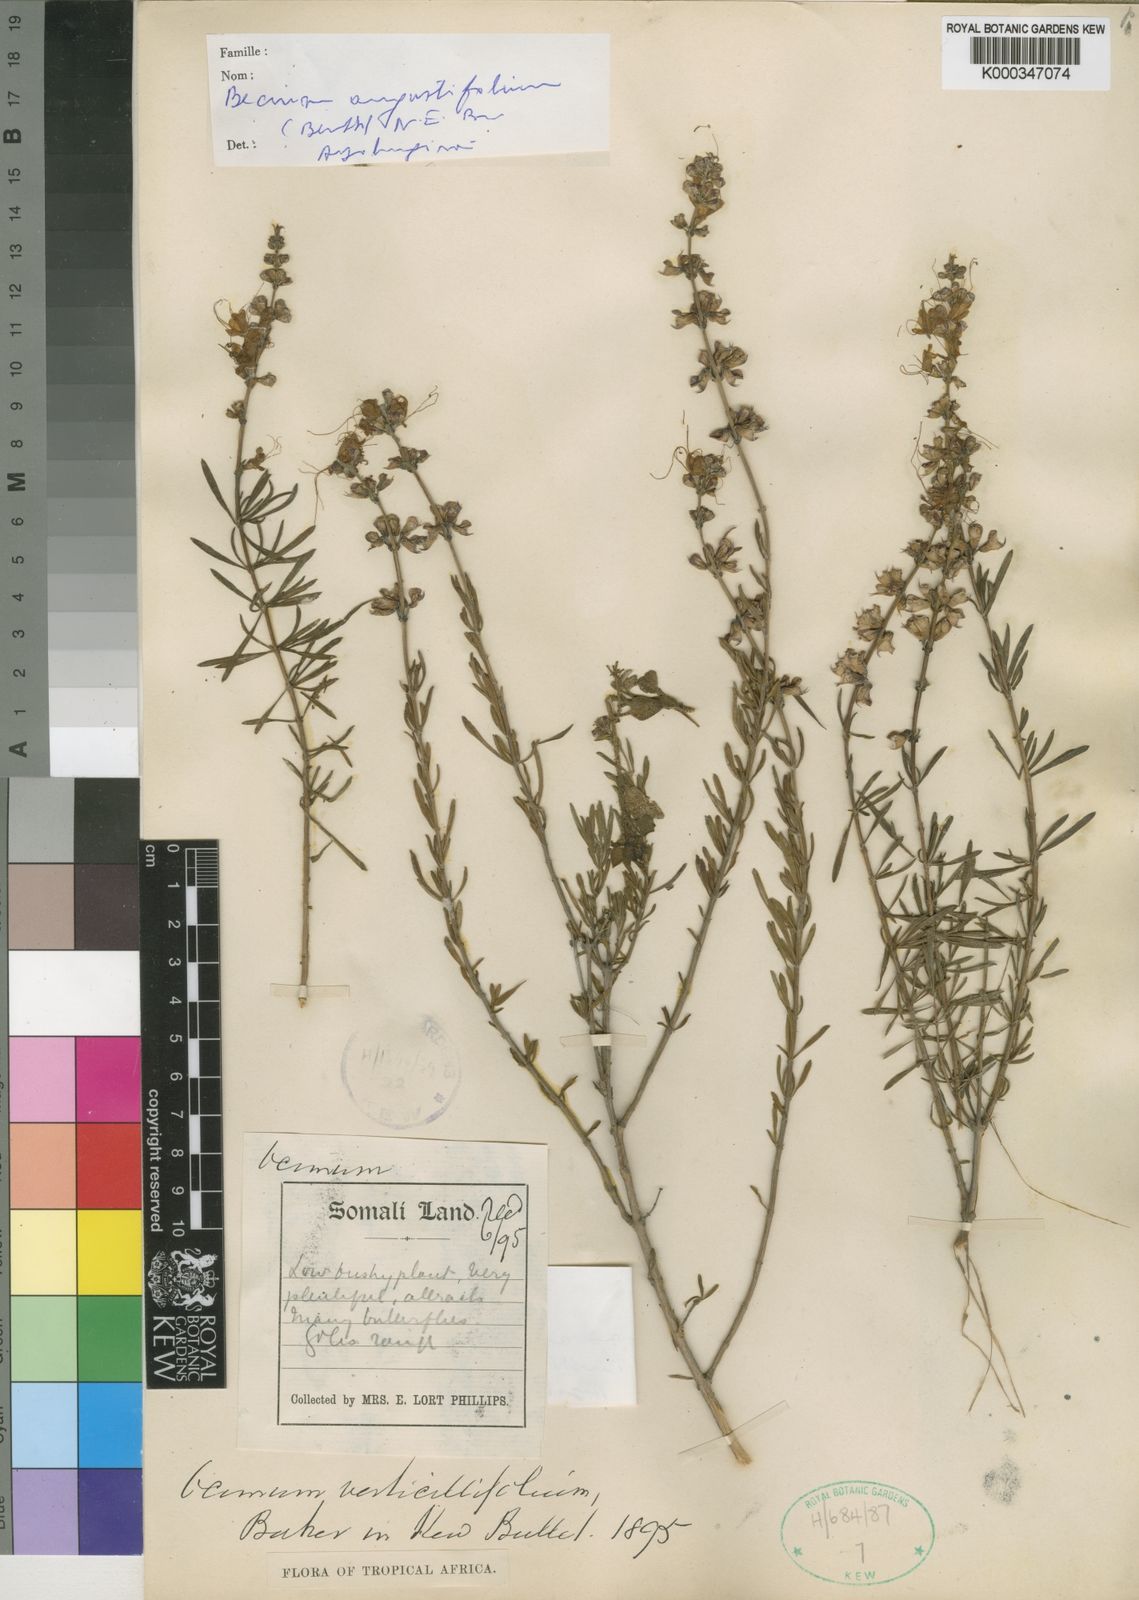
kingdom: Plantae
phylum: Tracheophyta
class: Magnoliopsida
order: Lamiales
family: Lamiaceae
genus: Ocimum
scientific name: Ocimum verticillifolium
